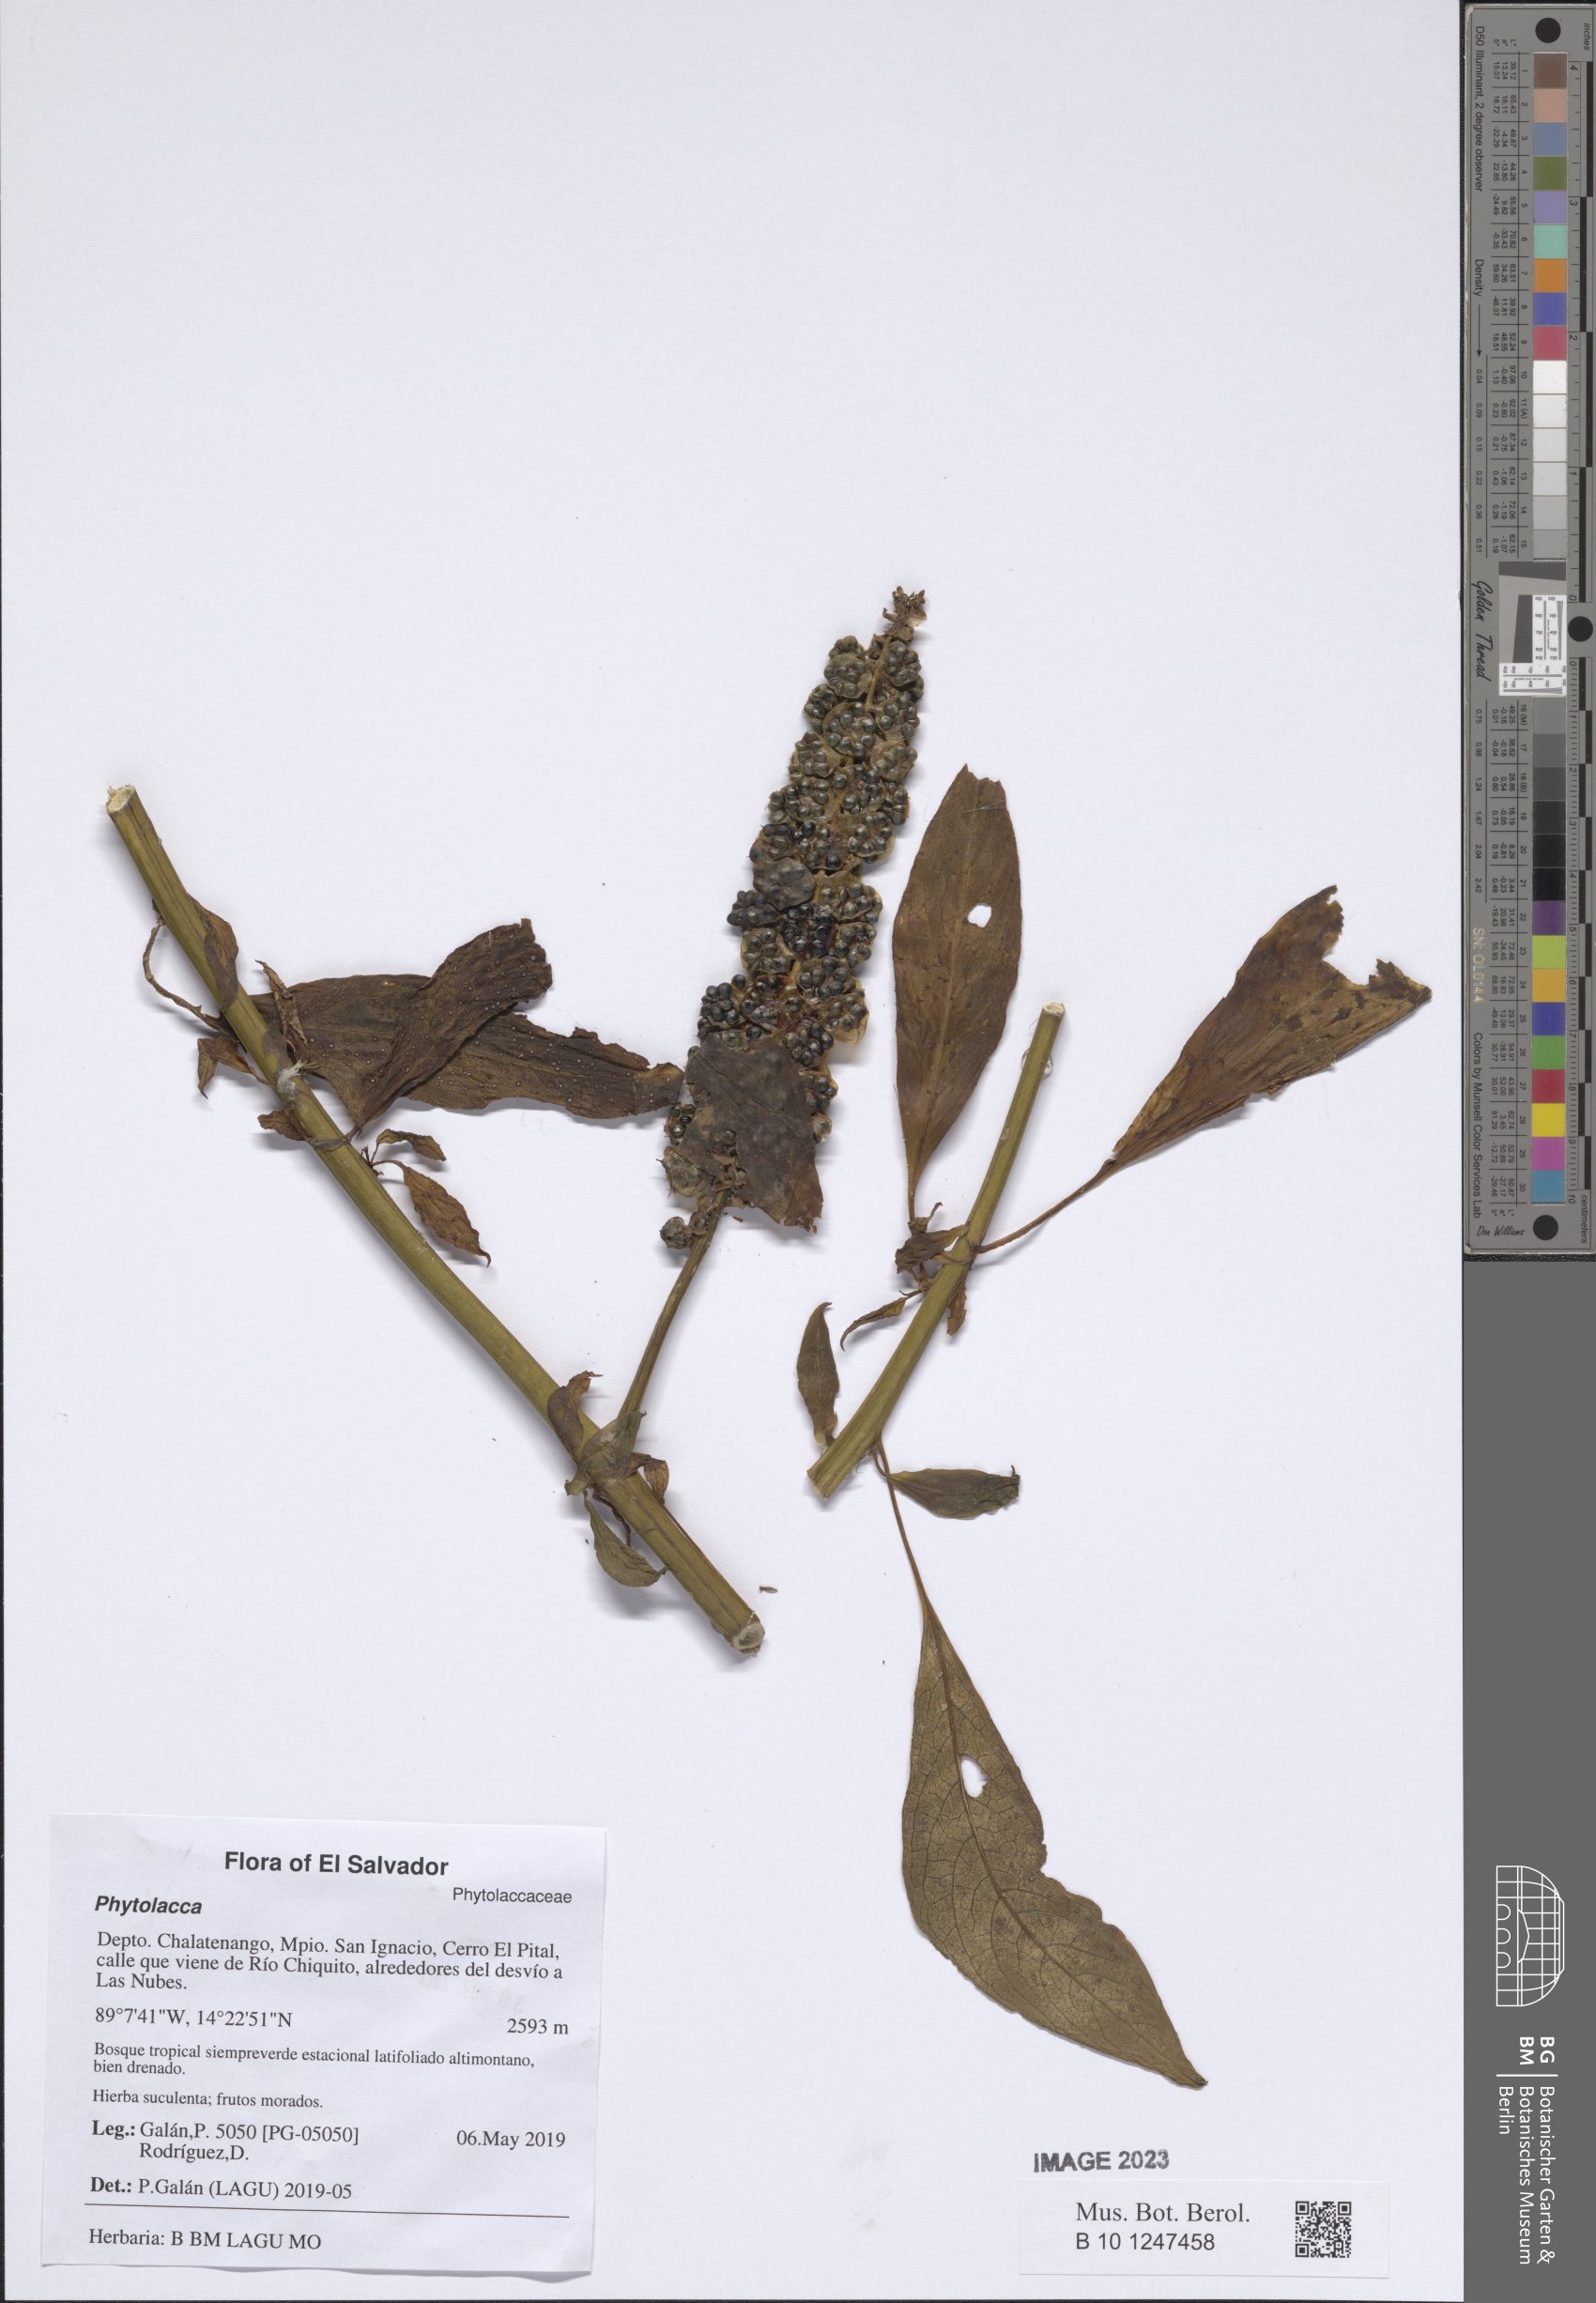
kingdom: Plantae
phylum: Tracheophyta
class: Magnoliopsida
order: Caryophyllales
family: Phytolaccaceae
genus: Phytolacca
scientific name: Phytolacca
